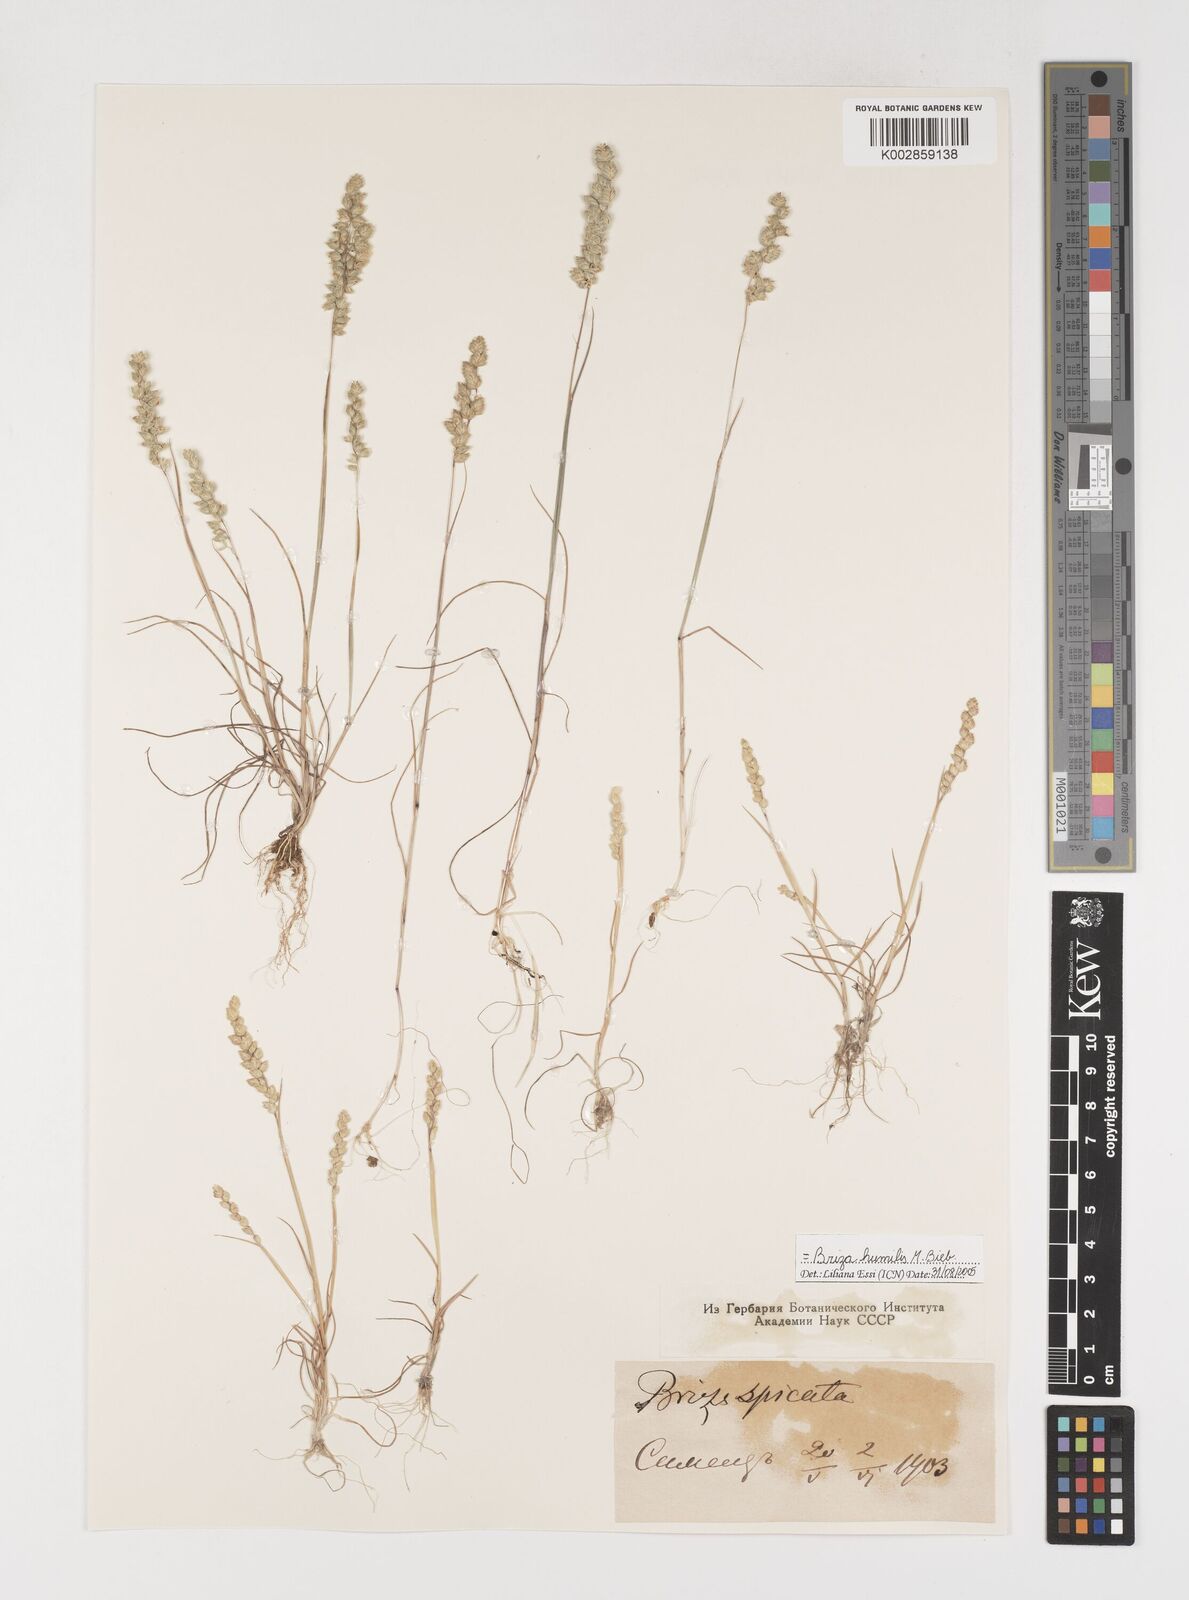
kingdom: Plantae
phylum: Tracheophyta
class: Liliopsida
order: Poales
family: Poaceae
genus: Briza
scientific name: Briza humilis
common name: Spiked quaking grass
